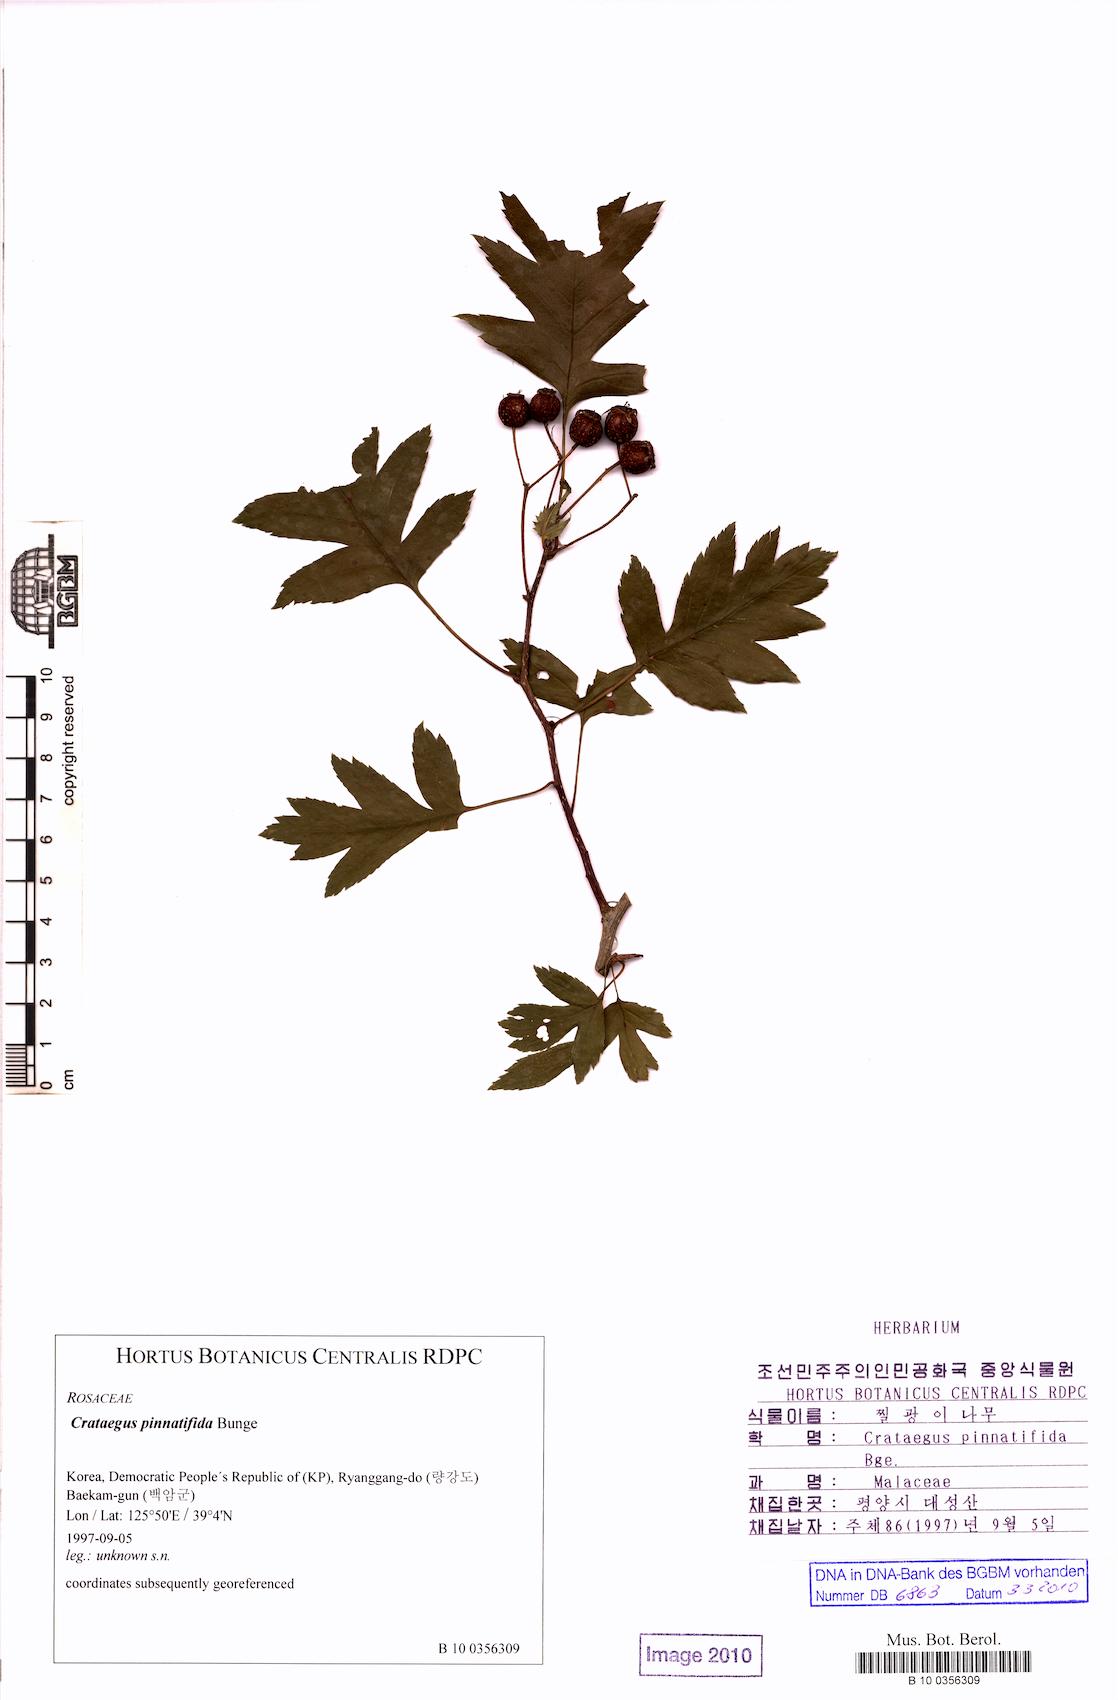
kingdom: Plantae
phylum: Tracheophyta
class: Magnoliopsida
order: Rosales
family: Rosaceae
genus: Crataegus
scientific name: Crataegus pinnatifida
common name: Chinese haw
